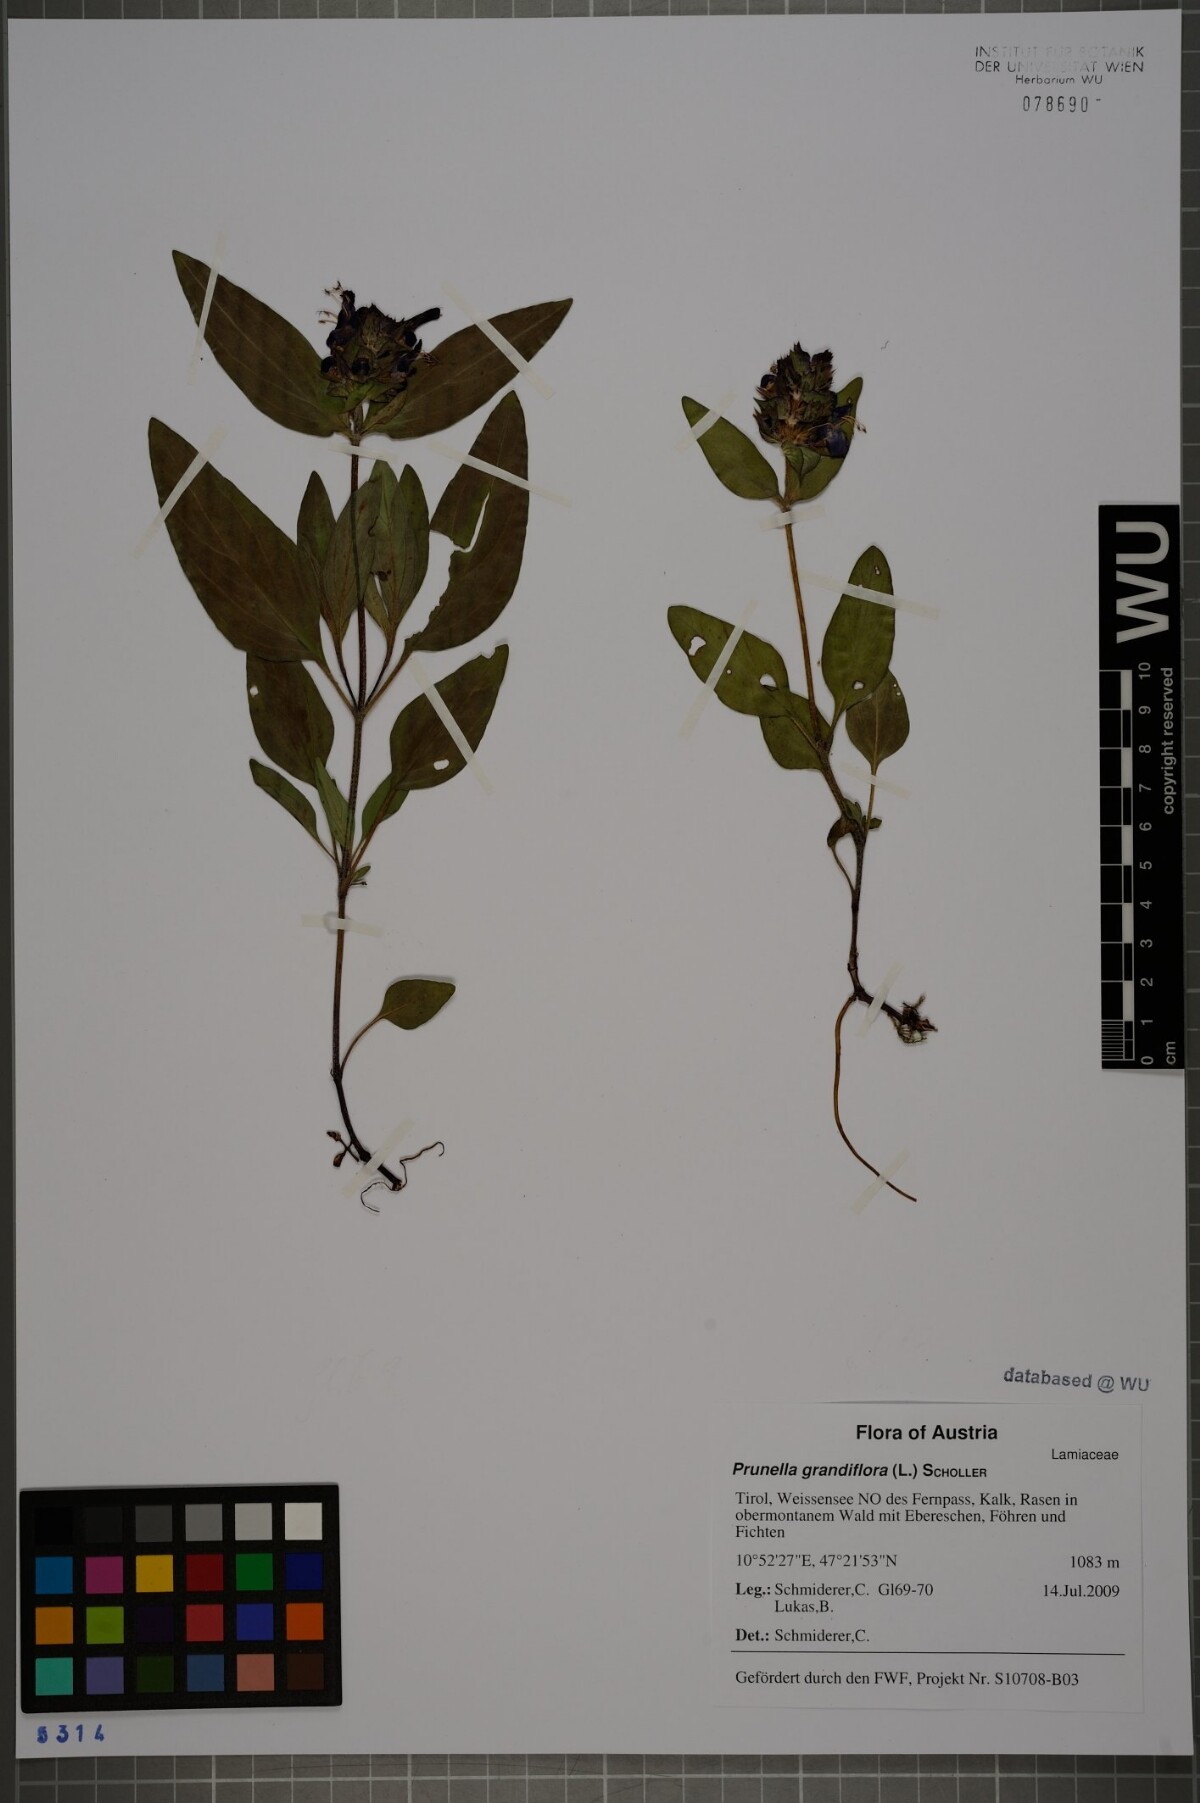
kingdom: Plantae
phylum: Tracheophyta
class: Magnoliopsida
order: Lamiales
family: Lamiaceae
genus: Prunella
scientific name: Prunella grandiflora
